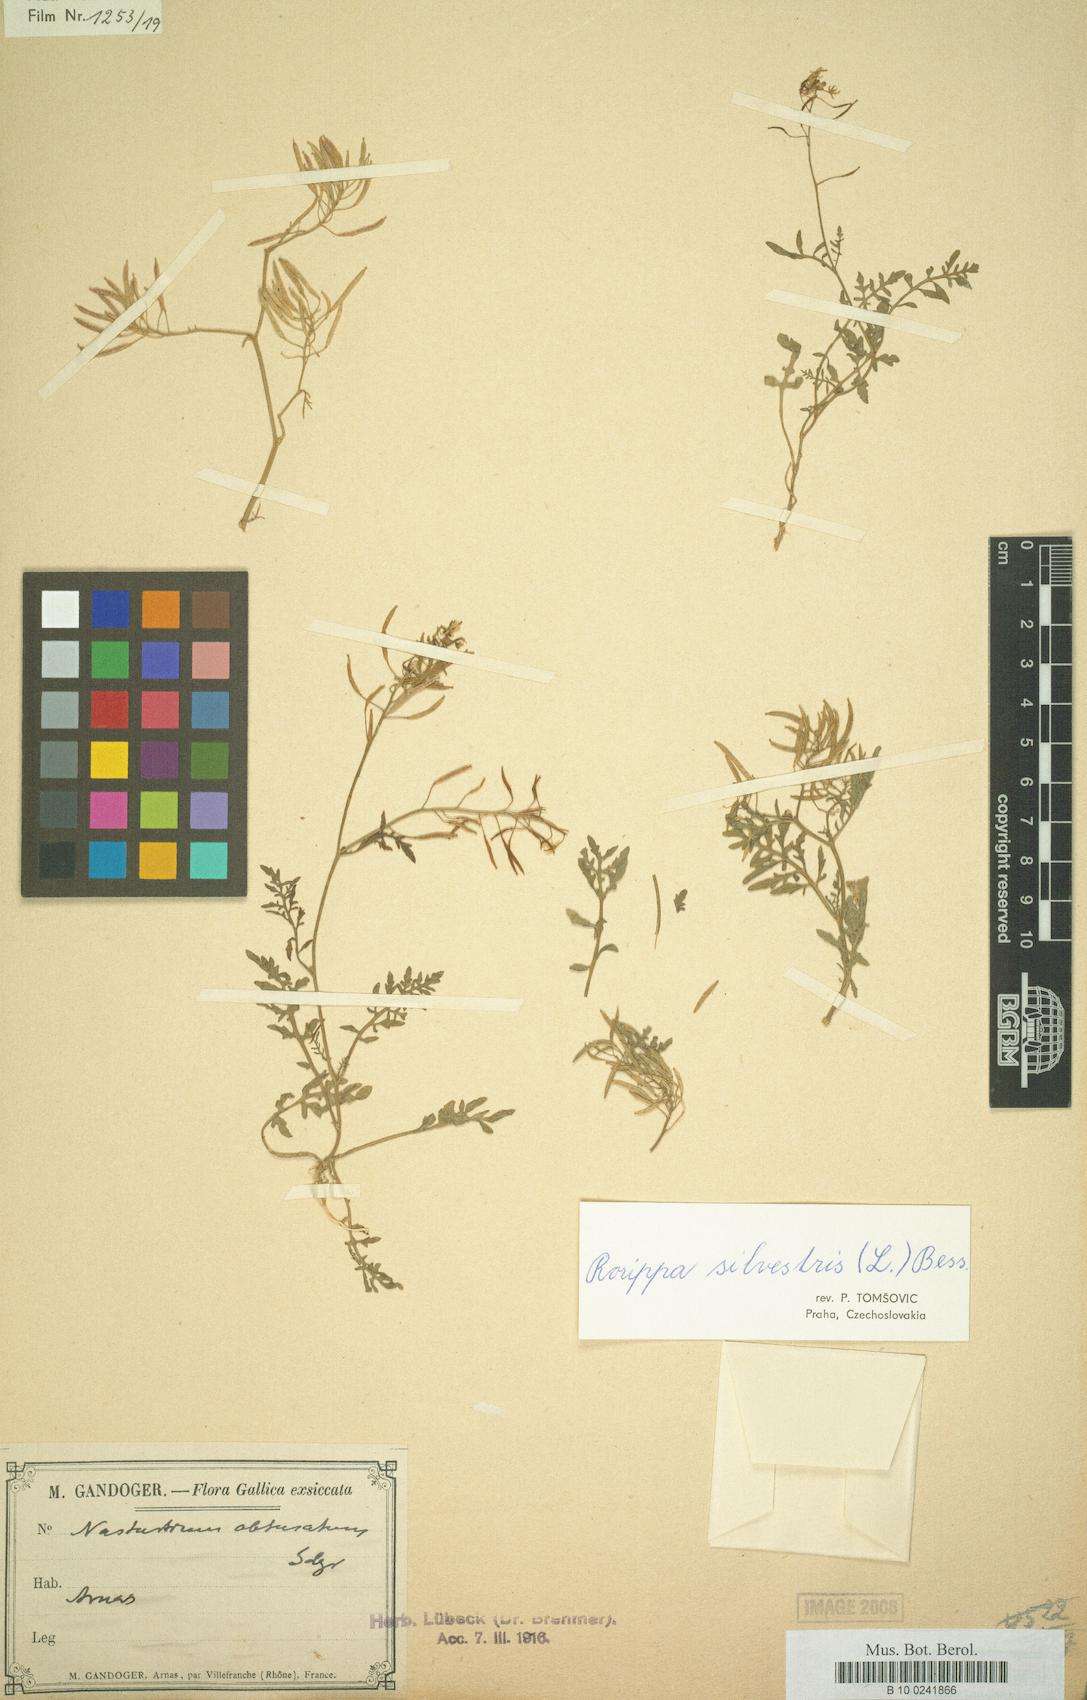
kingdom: Plantae
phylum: Tracheophyta
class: Magnoliopsida
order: Brassicales
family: Brassicaceae
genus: Rorippa
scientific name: Rorippa sylvestris
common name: Creeping yellowcress
